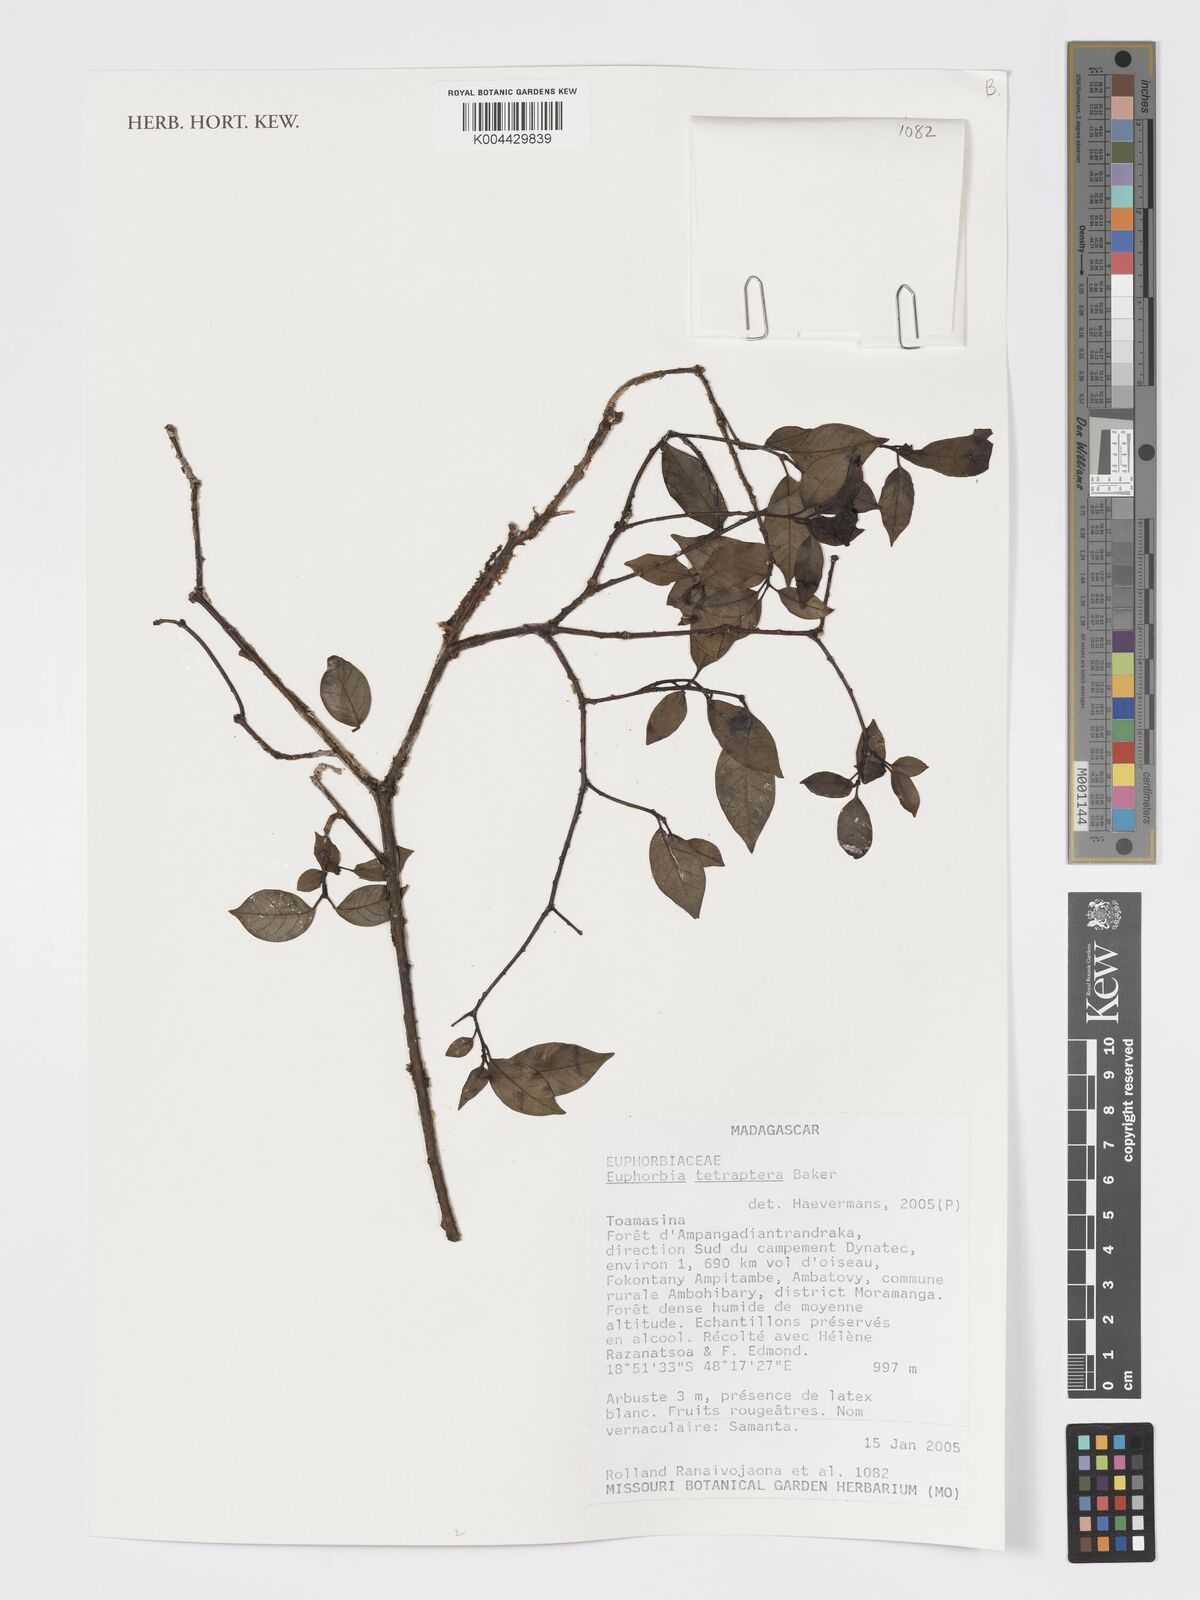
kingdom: Plantae
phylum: Tracheophyta
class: Magnoliopsida
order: Malpighiales
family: Euphorbiaceae
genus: Euphorbia
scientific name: Euphorbia tetraptera
